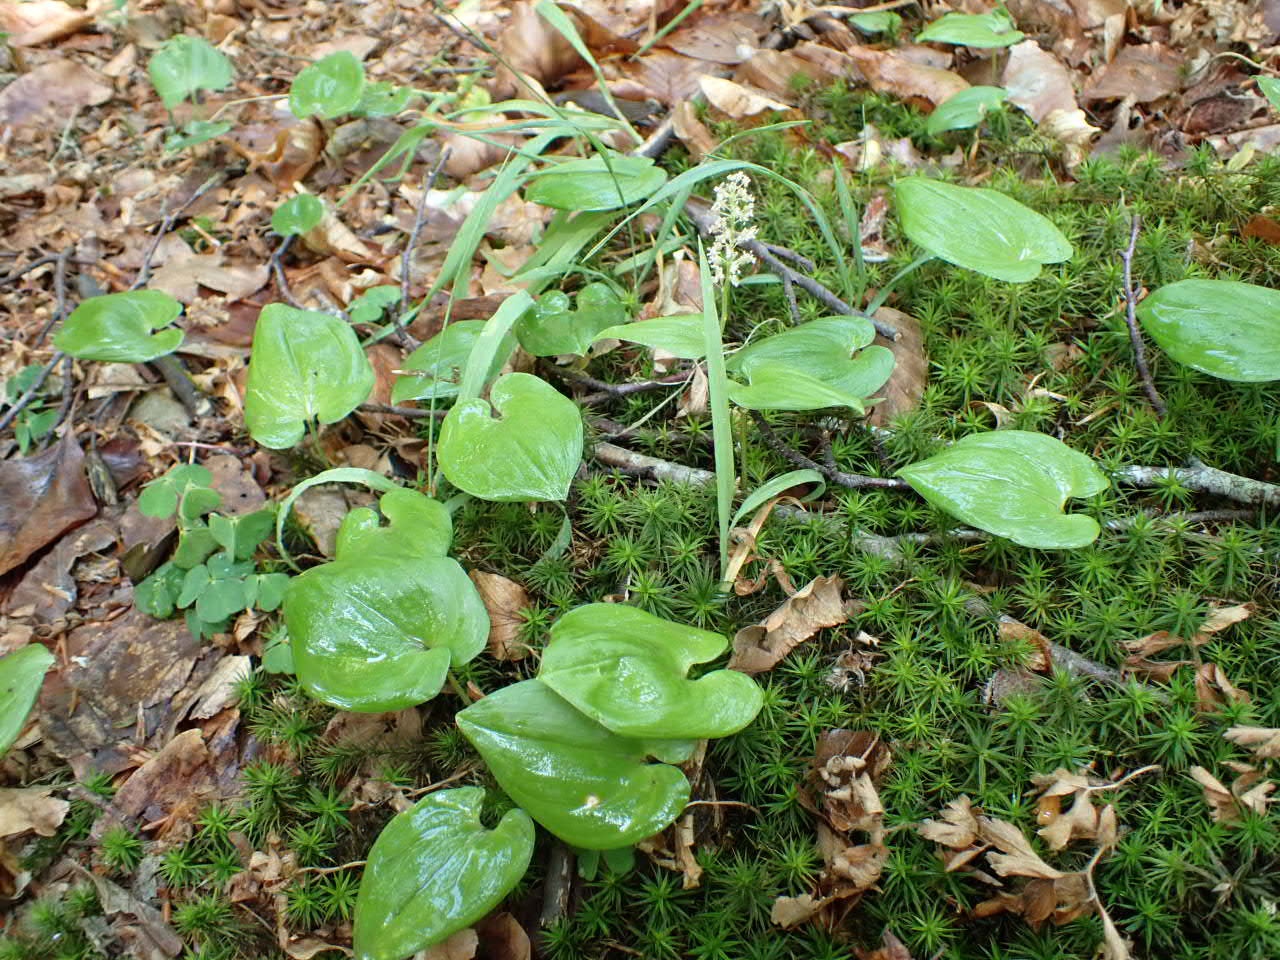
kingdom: Plantae
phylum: Tracheophyta
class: Liliopsida
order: Asparagales
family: Asparagaceae
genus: Maianthemum
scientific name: Maianthemum bifolium
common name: Majblomst
